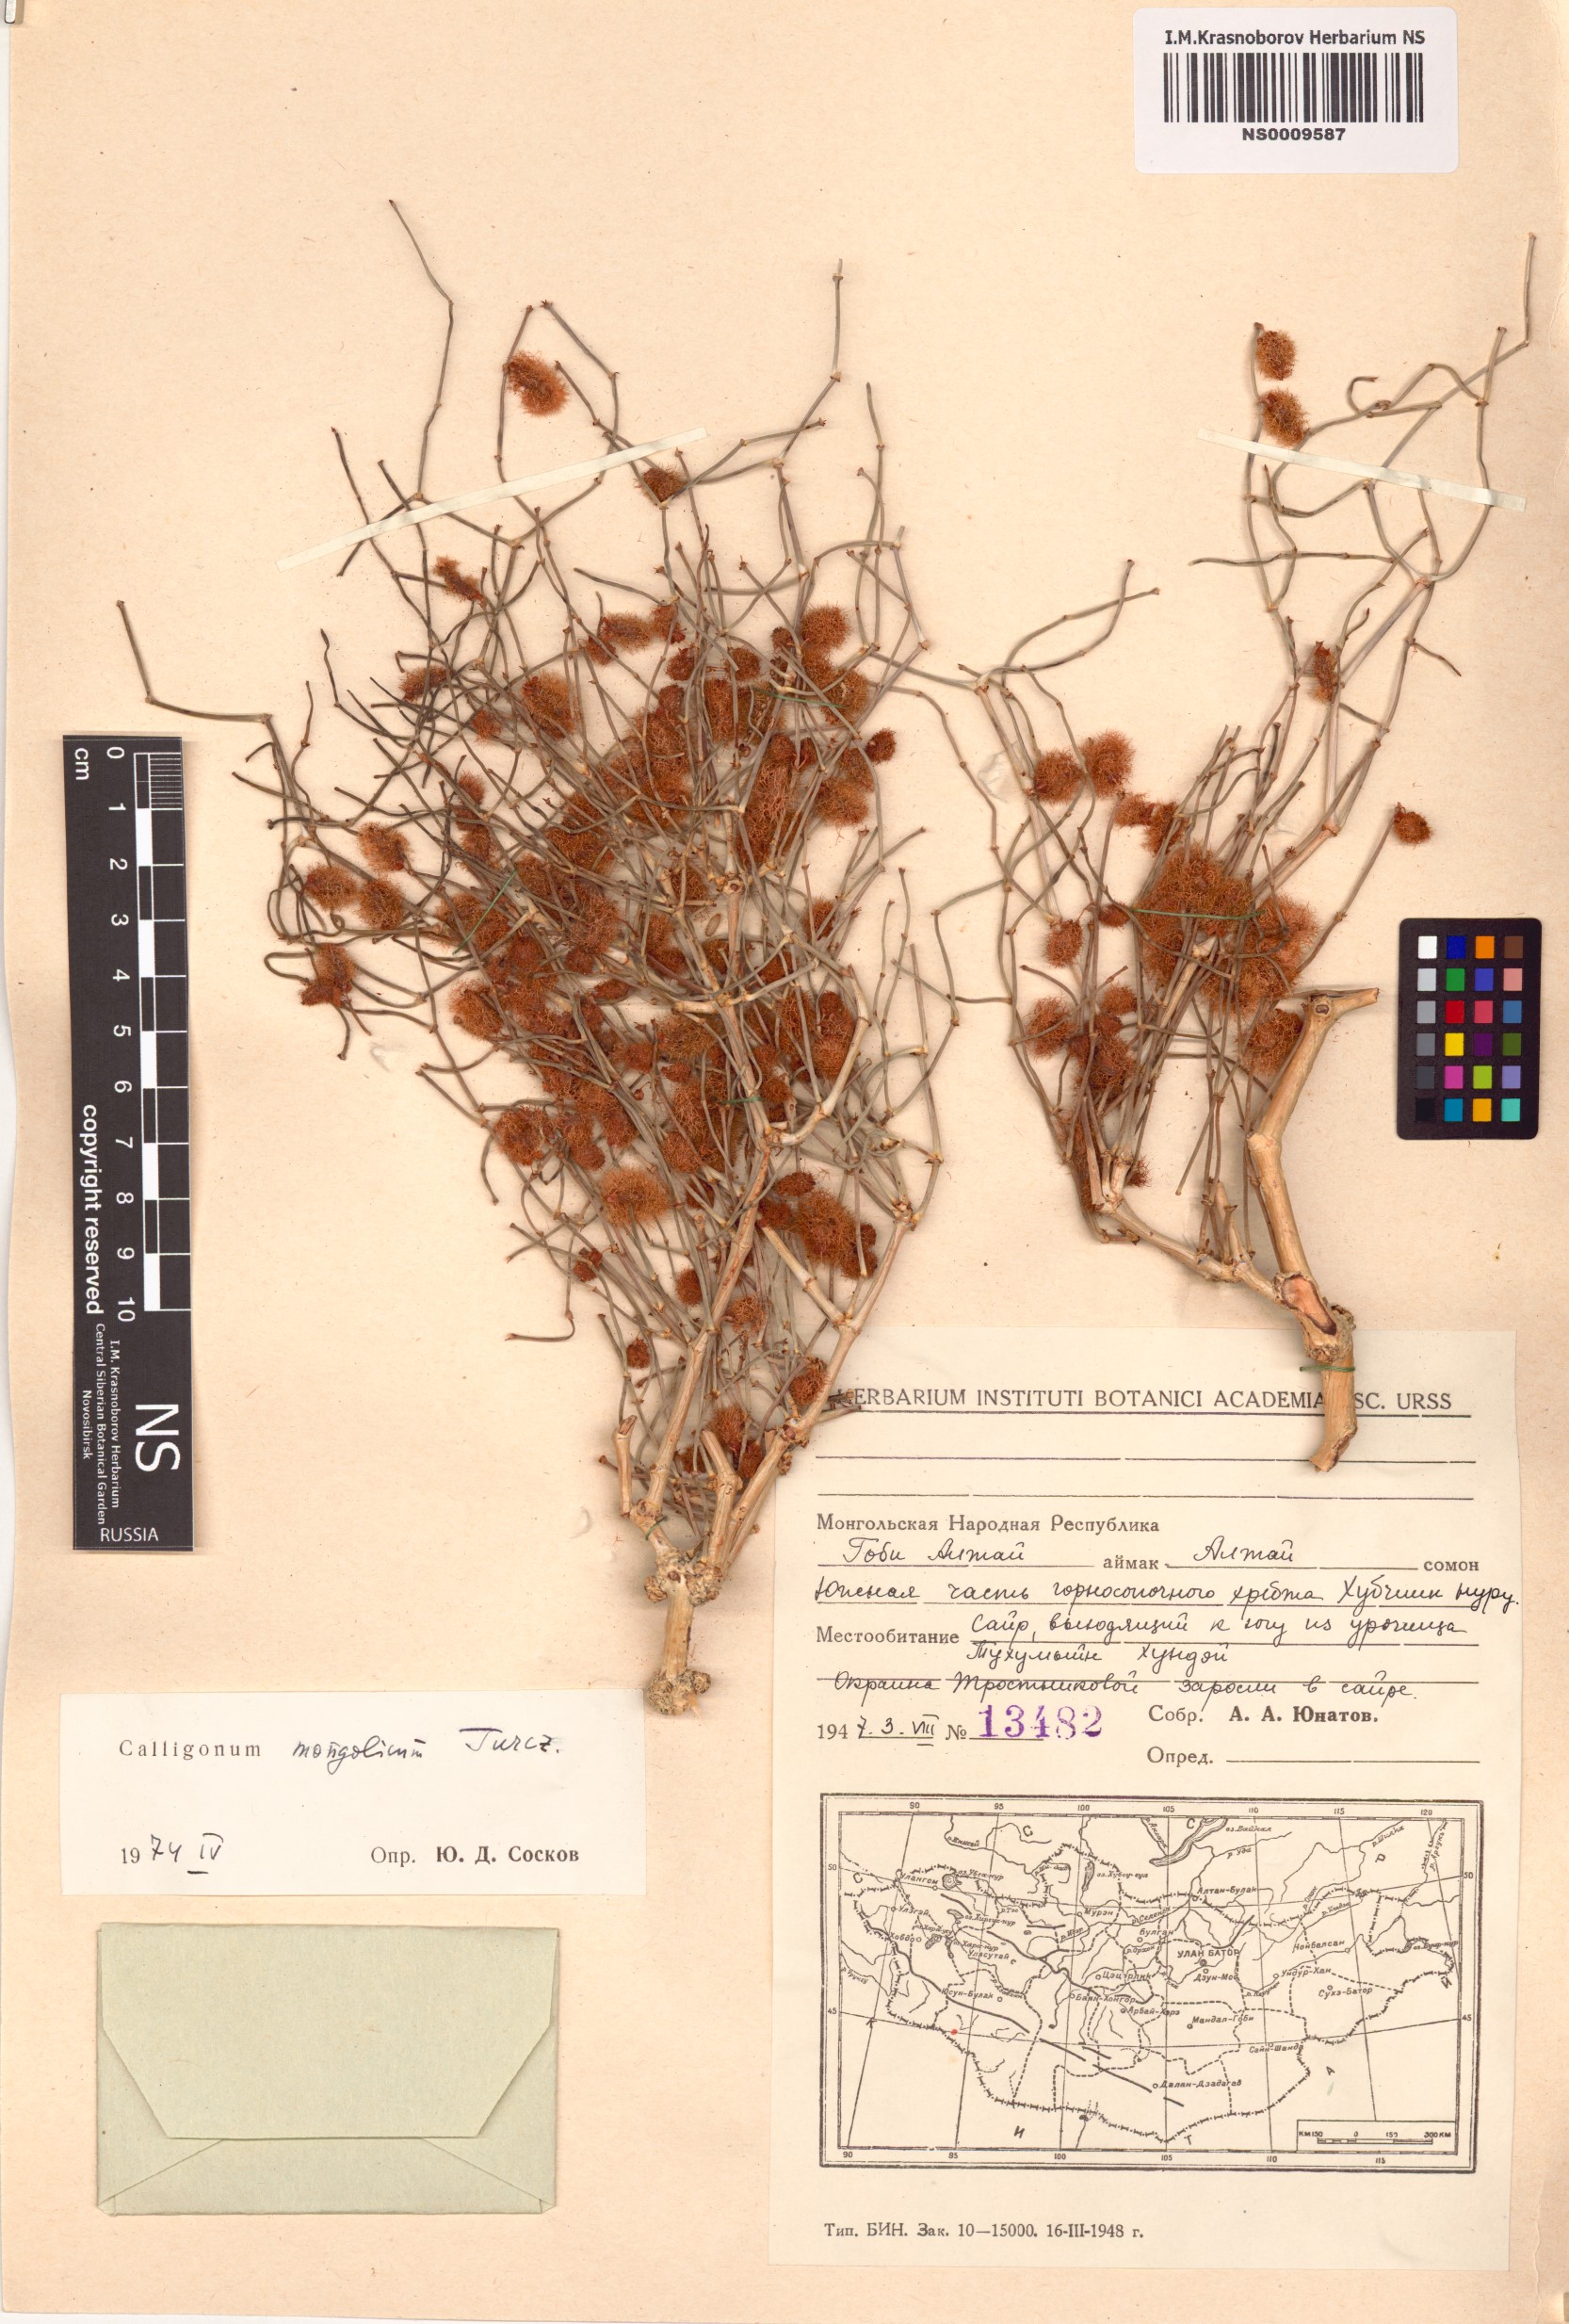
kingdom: Plantae
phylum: Tracheophyta
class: Magnoliopsida
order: Caryophyllales
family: Polygonaceae
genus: Calligonum
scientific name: Calligonum mongolicum
